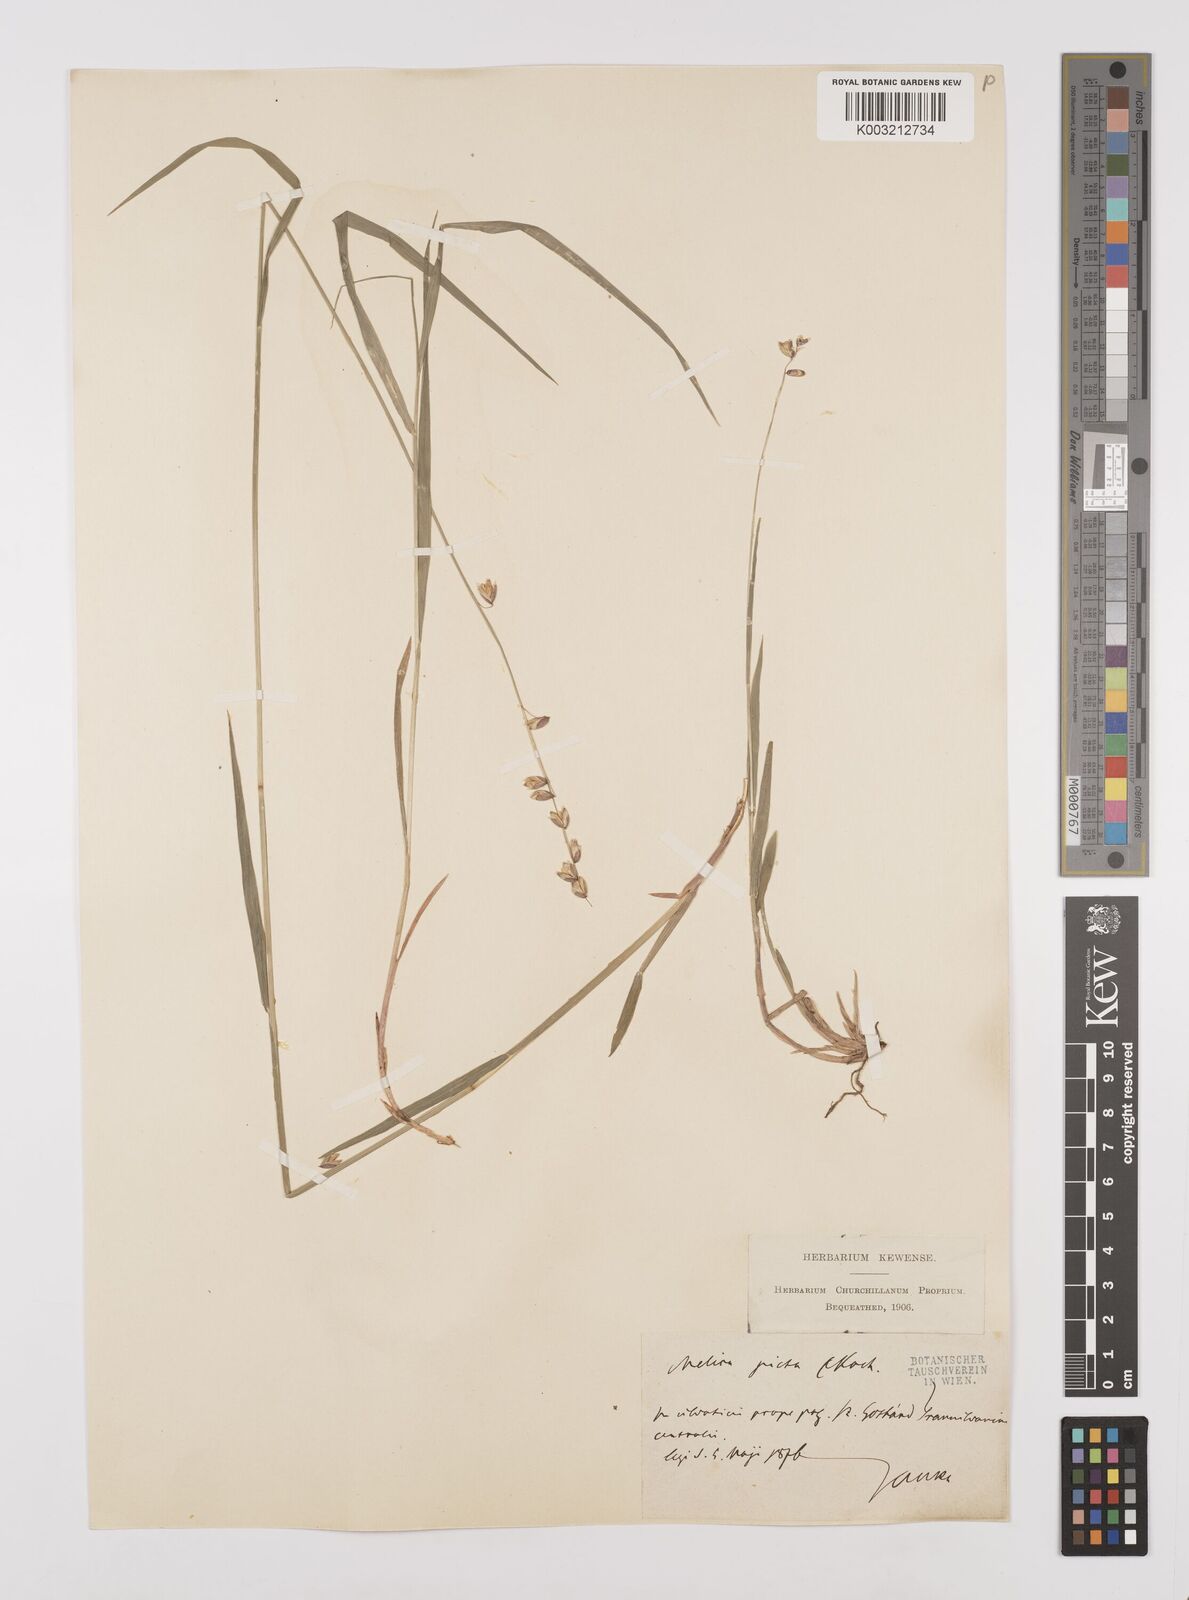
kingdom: Plantae
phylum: Tracheophyta
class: Liliopsida
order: Poales
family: Poaceae
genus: Melica
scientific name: Melica picta
